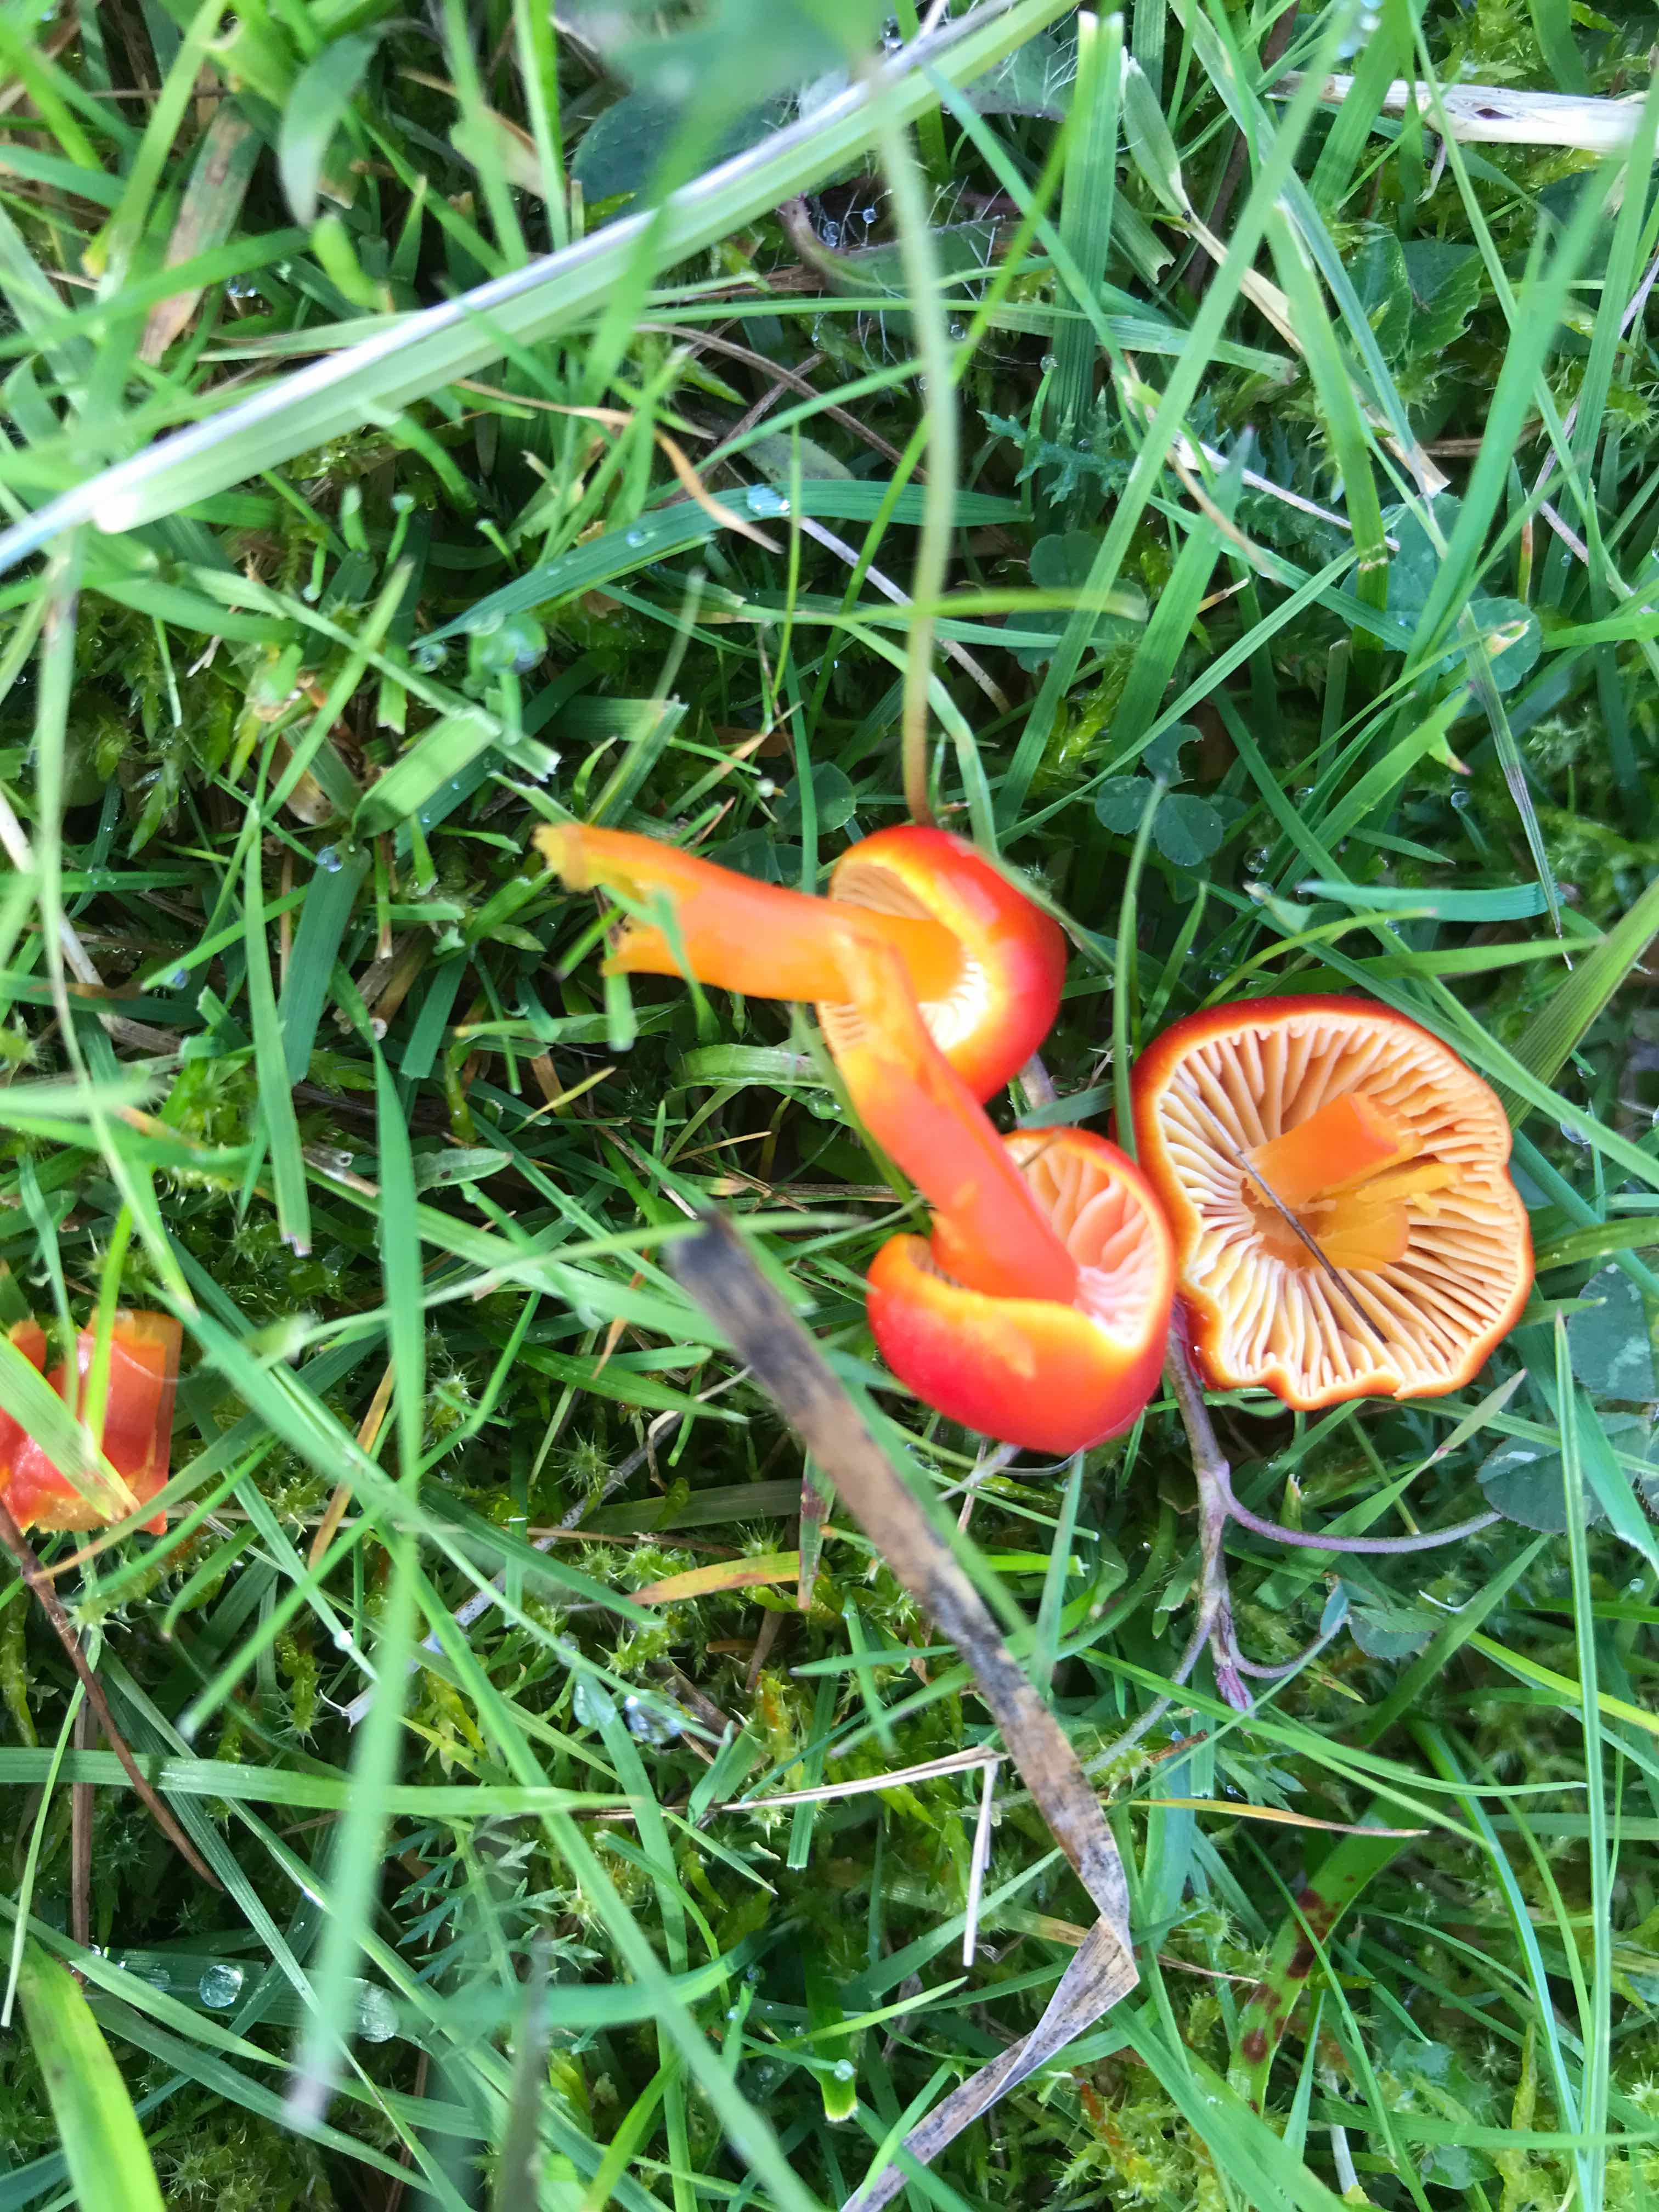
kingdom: Fungi
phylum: Basidiomycota
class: Agaricomycetes
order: Agaricales
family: Hygrophoraceae
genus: Hygrocybe
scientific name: Hygrocybe coccinea
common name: cinnober-vokshat
